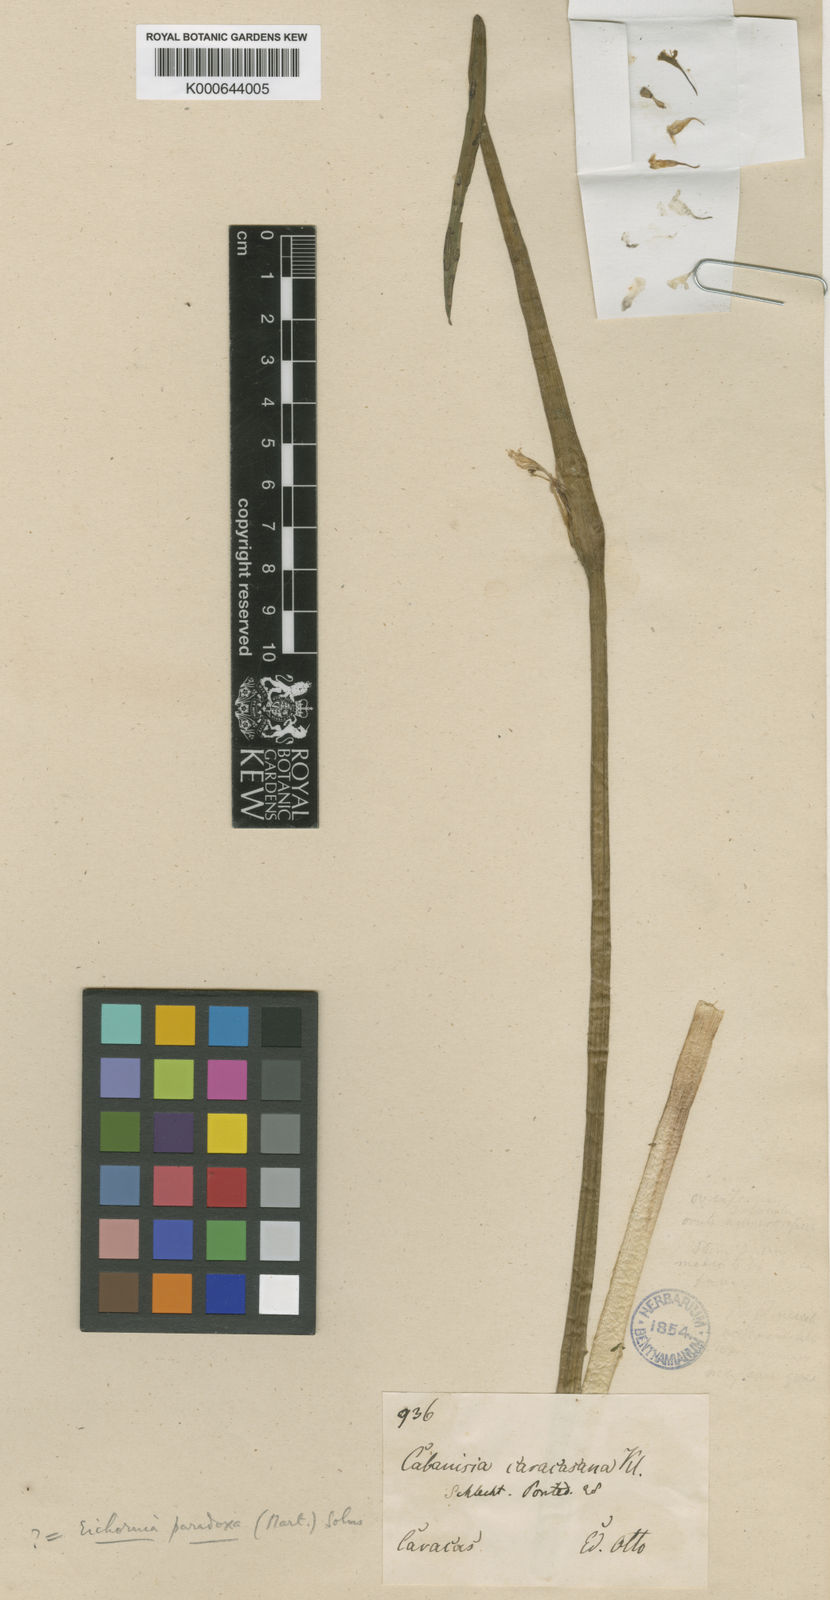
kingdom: Plantae
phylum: Tracheophyta
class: Liliopsida
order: Commelinales
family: Pontederiaceae
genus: Pontederia
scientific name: Pontederia paradoxa
